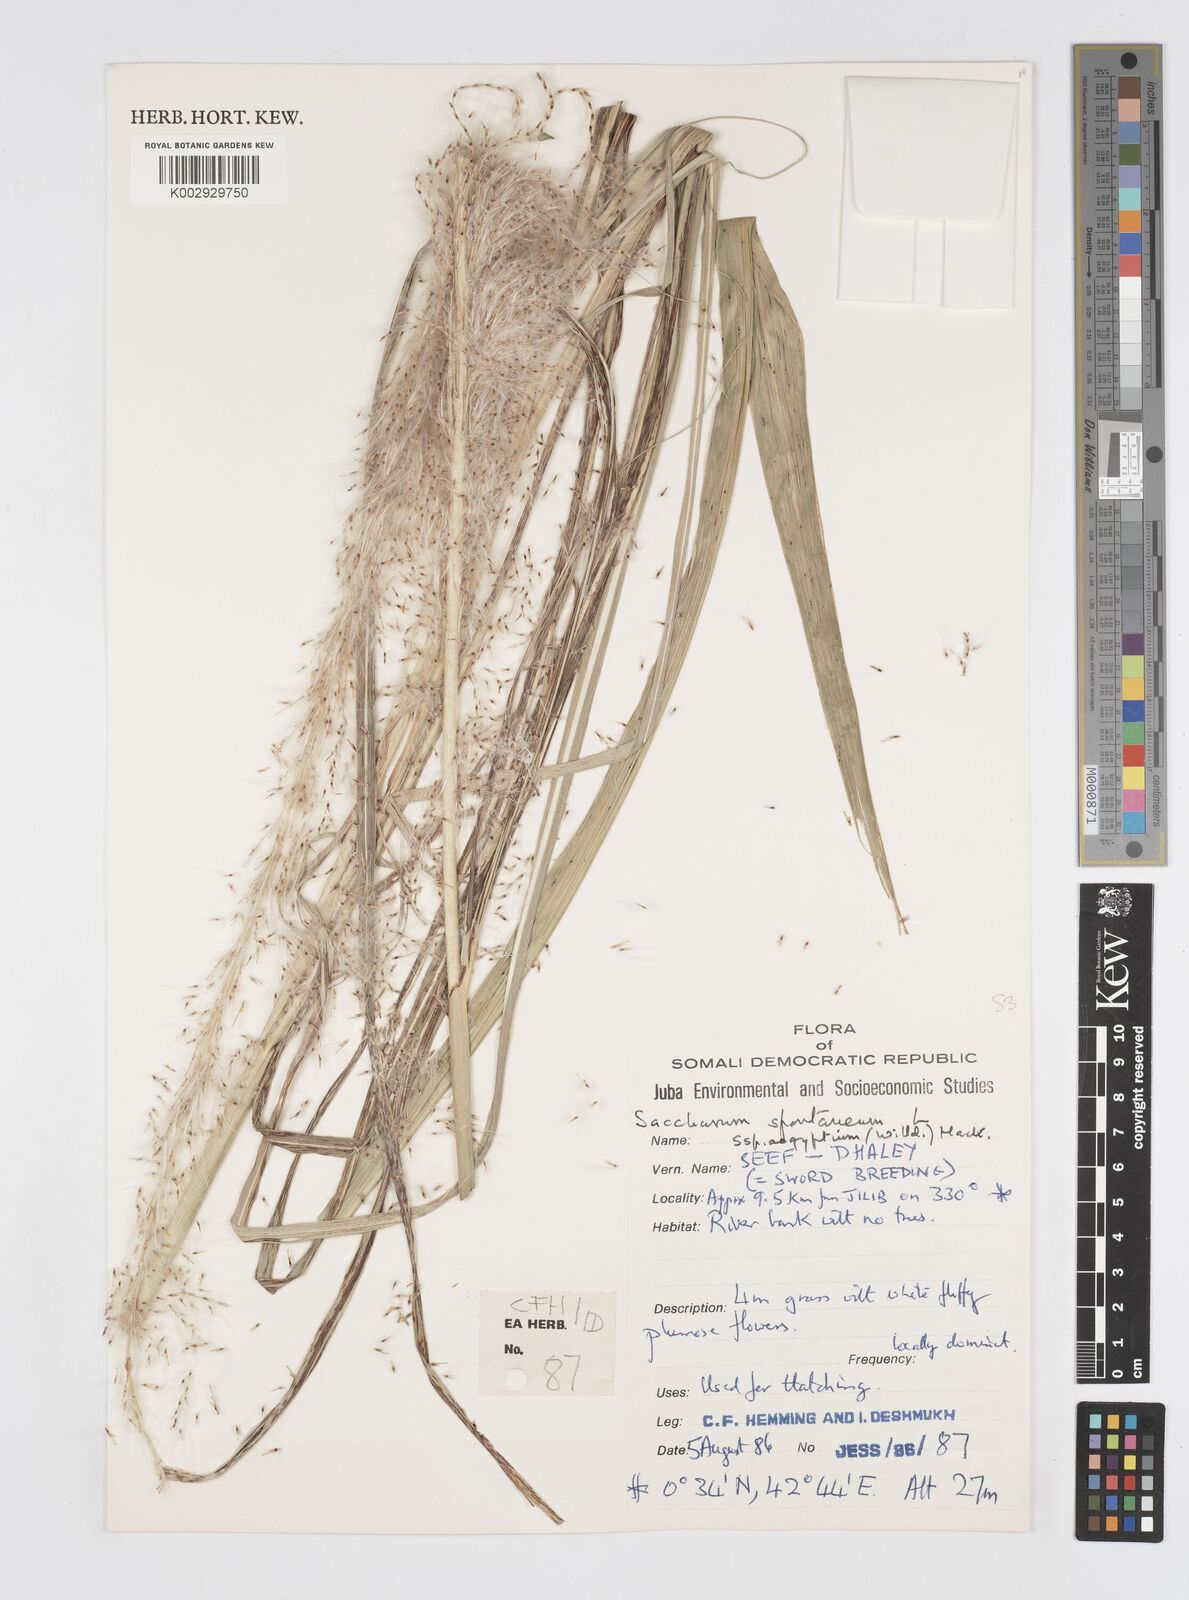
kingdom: Plantae
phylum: Tracheophyta
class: Liliopsida
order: Poales
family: Poaceae
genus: Saccharum
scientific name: Saccharum spontaneum
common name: Wild sugarcane
